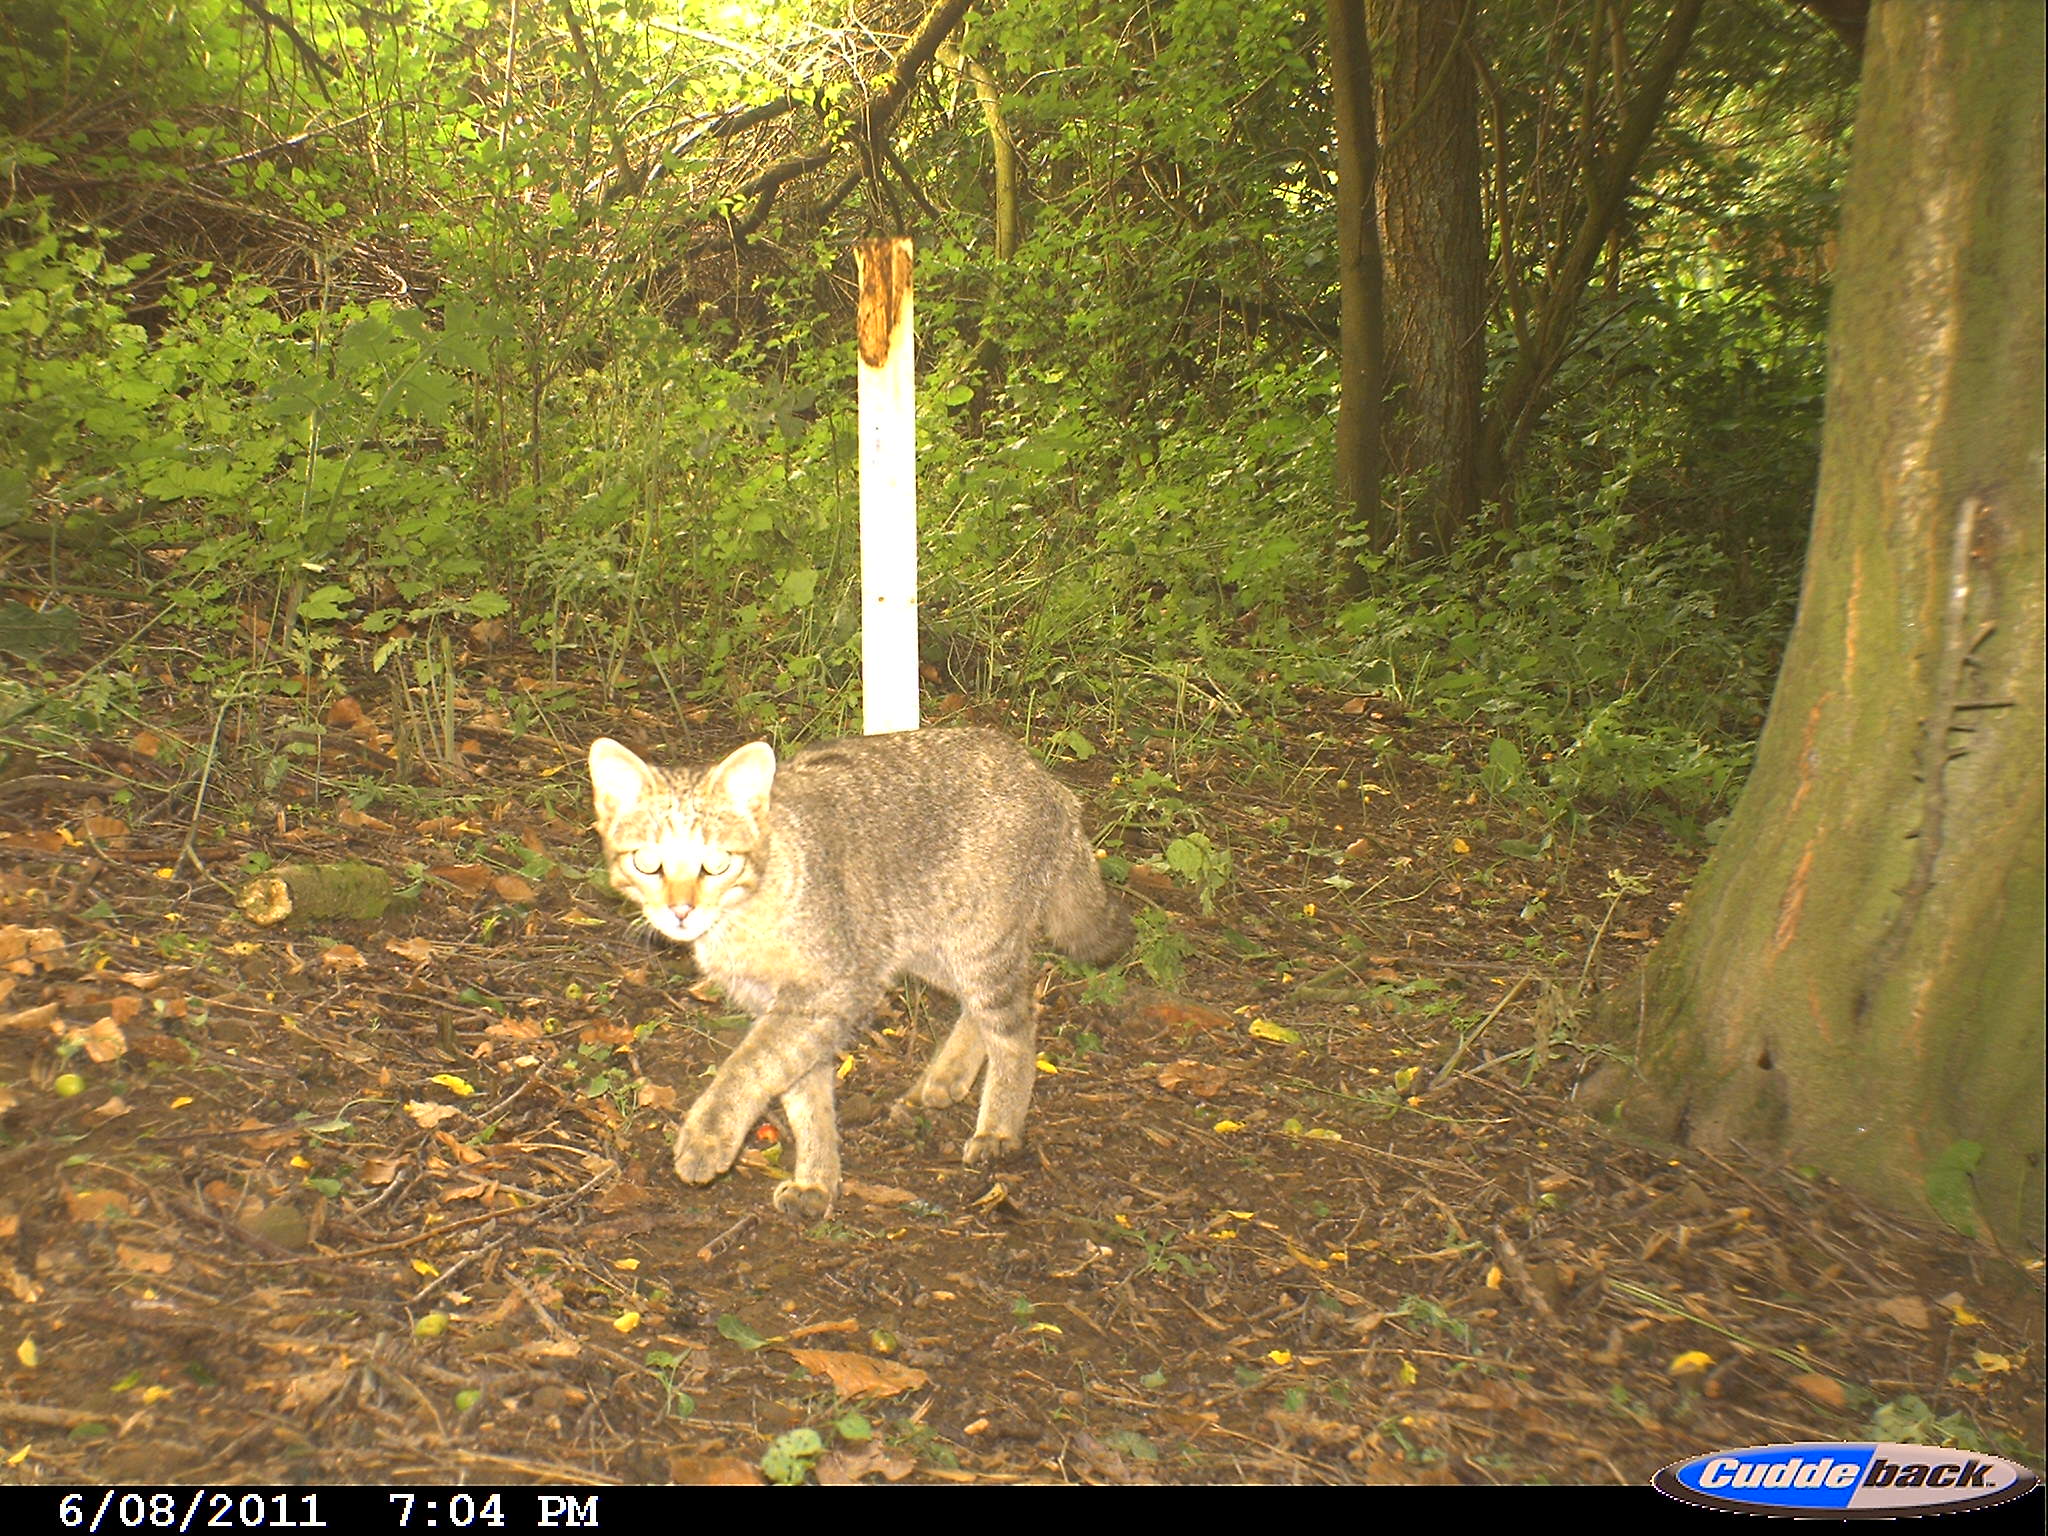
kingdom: Animalia
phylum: Chordata
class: Mammalia
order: Carnivora
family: Felidae
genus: Felis
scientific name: Felis silvestris
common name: Wildcat
